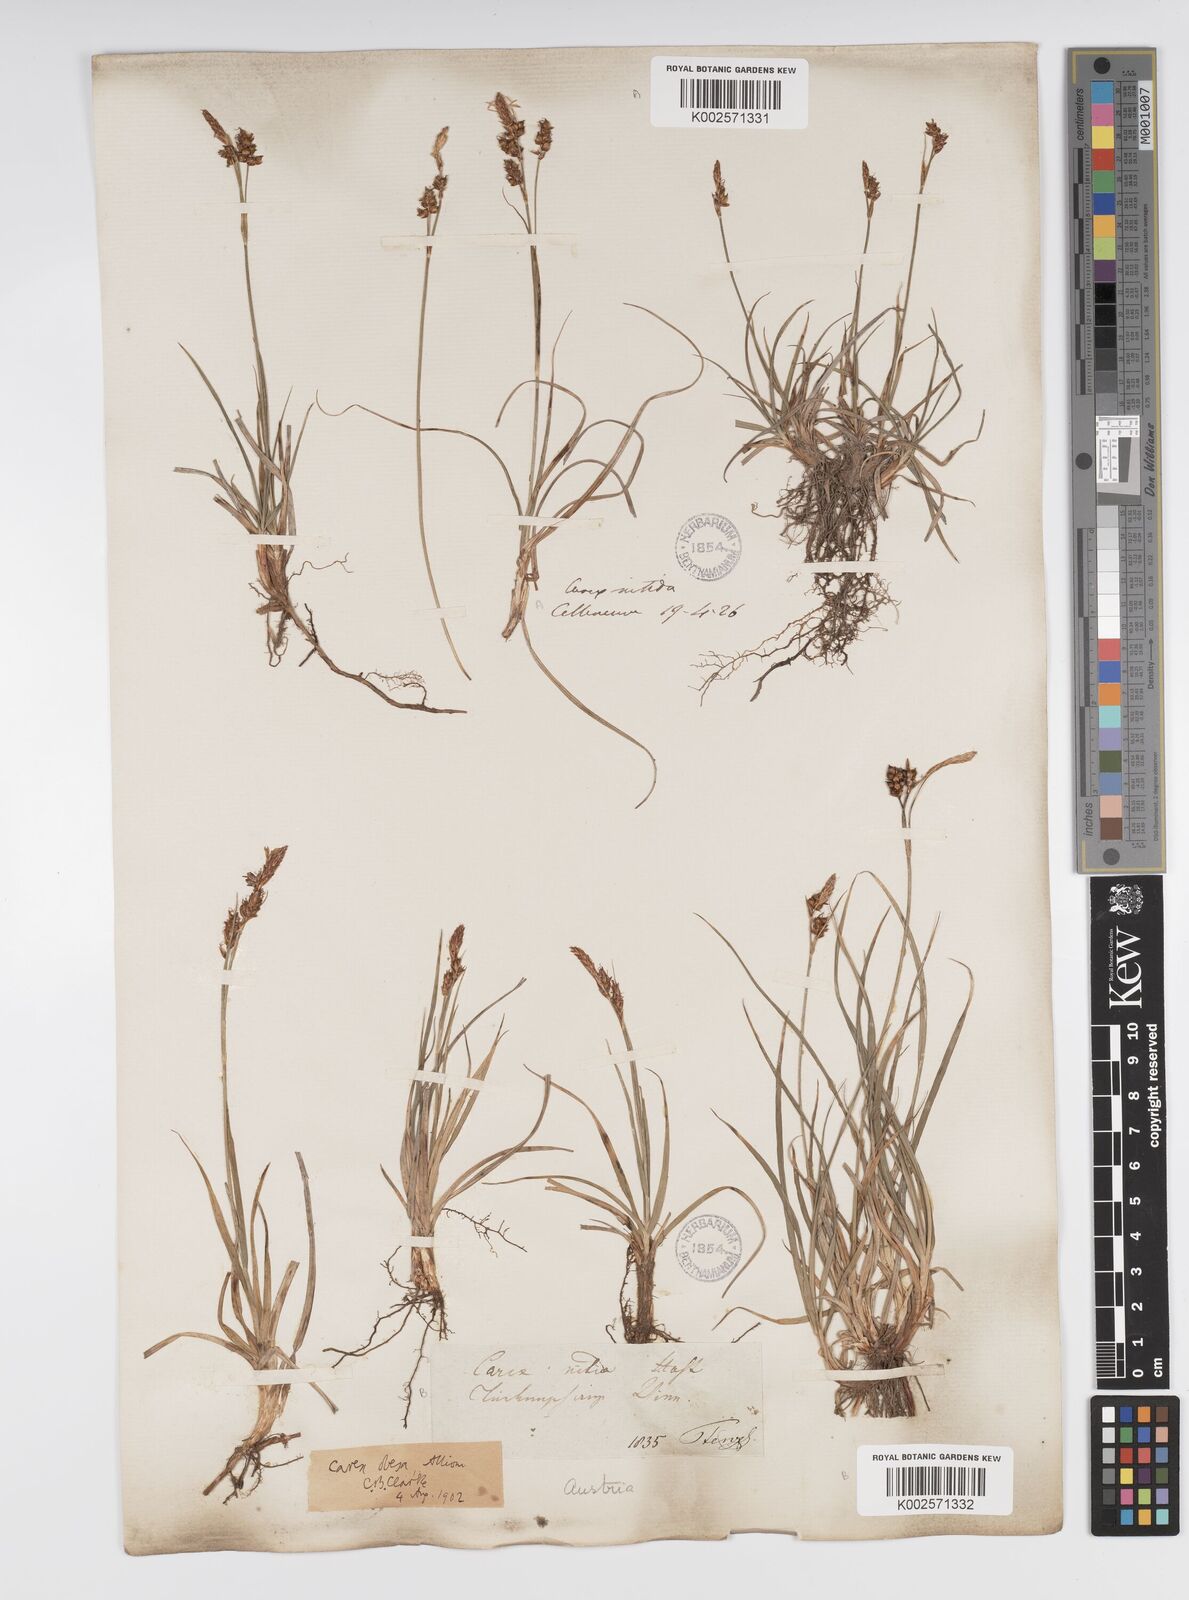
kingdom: Plantae
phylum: Tracheophyta
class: Liliopsida
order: Poales
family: Cyperaceae
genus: Carex
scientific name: Carex liparocarpos
